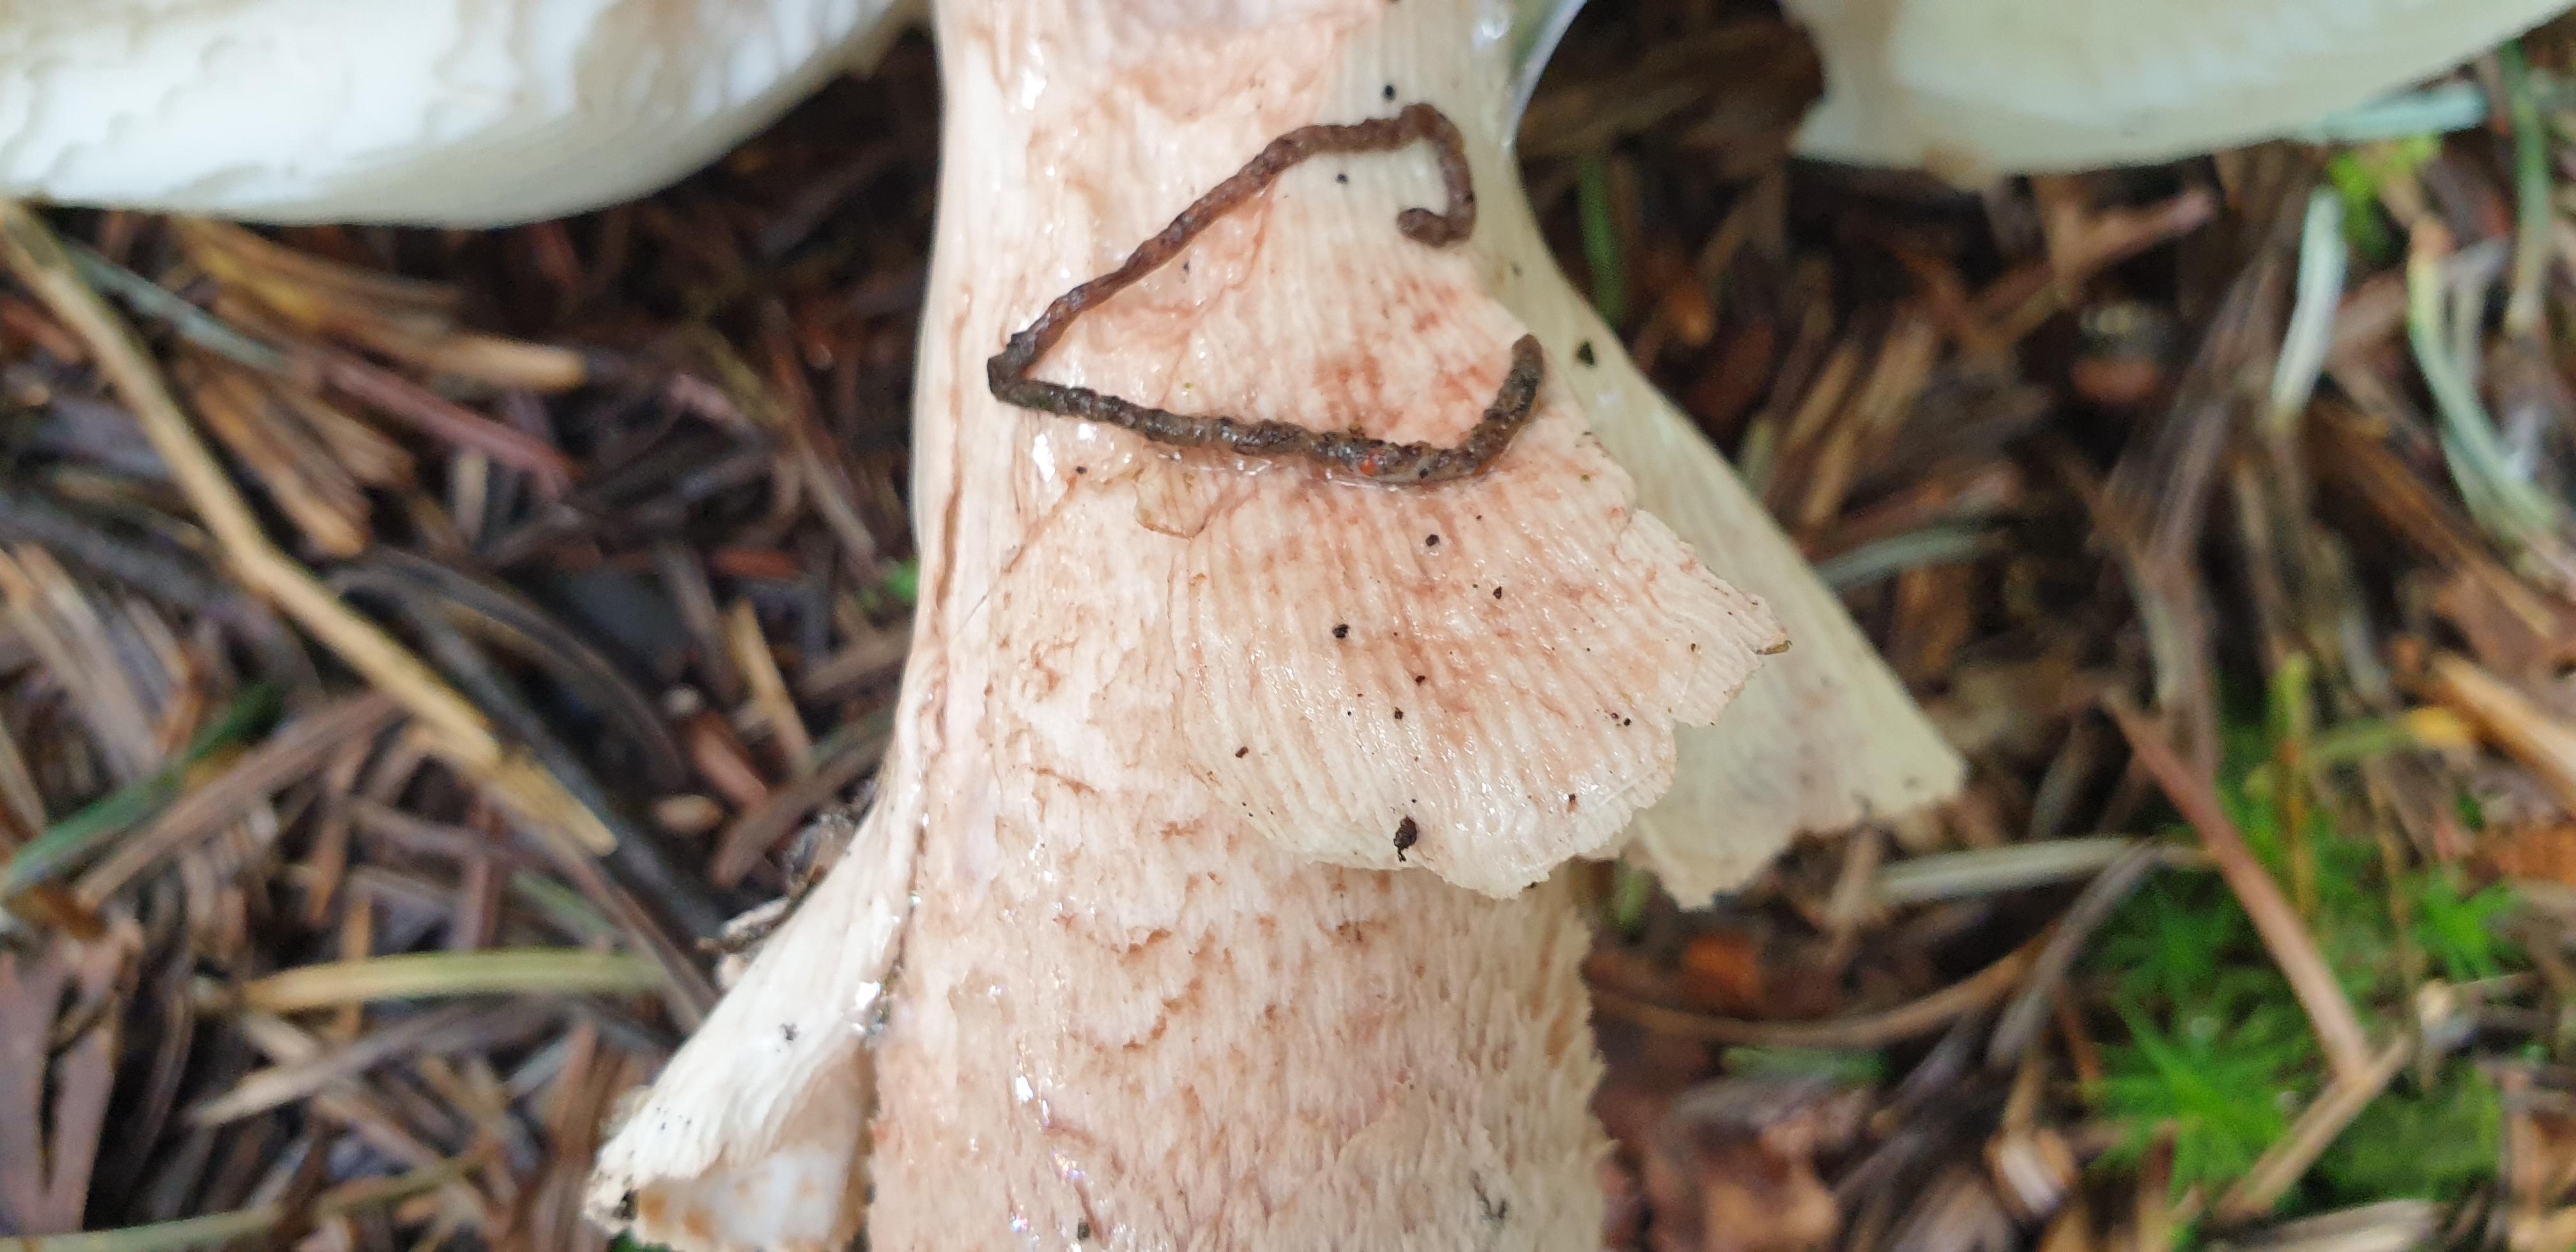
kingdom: Fungi
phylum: Basidiomycota
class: Agaricomycetes
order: Agaricales
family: Amanitaceae
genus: Amanita
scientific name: Amanita rubescens
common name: rødmende fluesvamp
